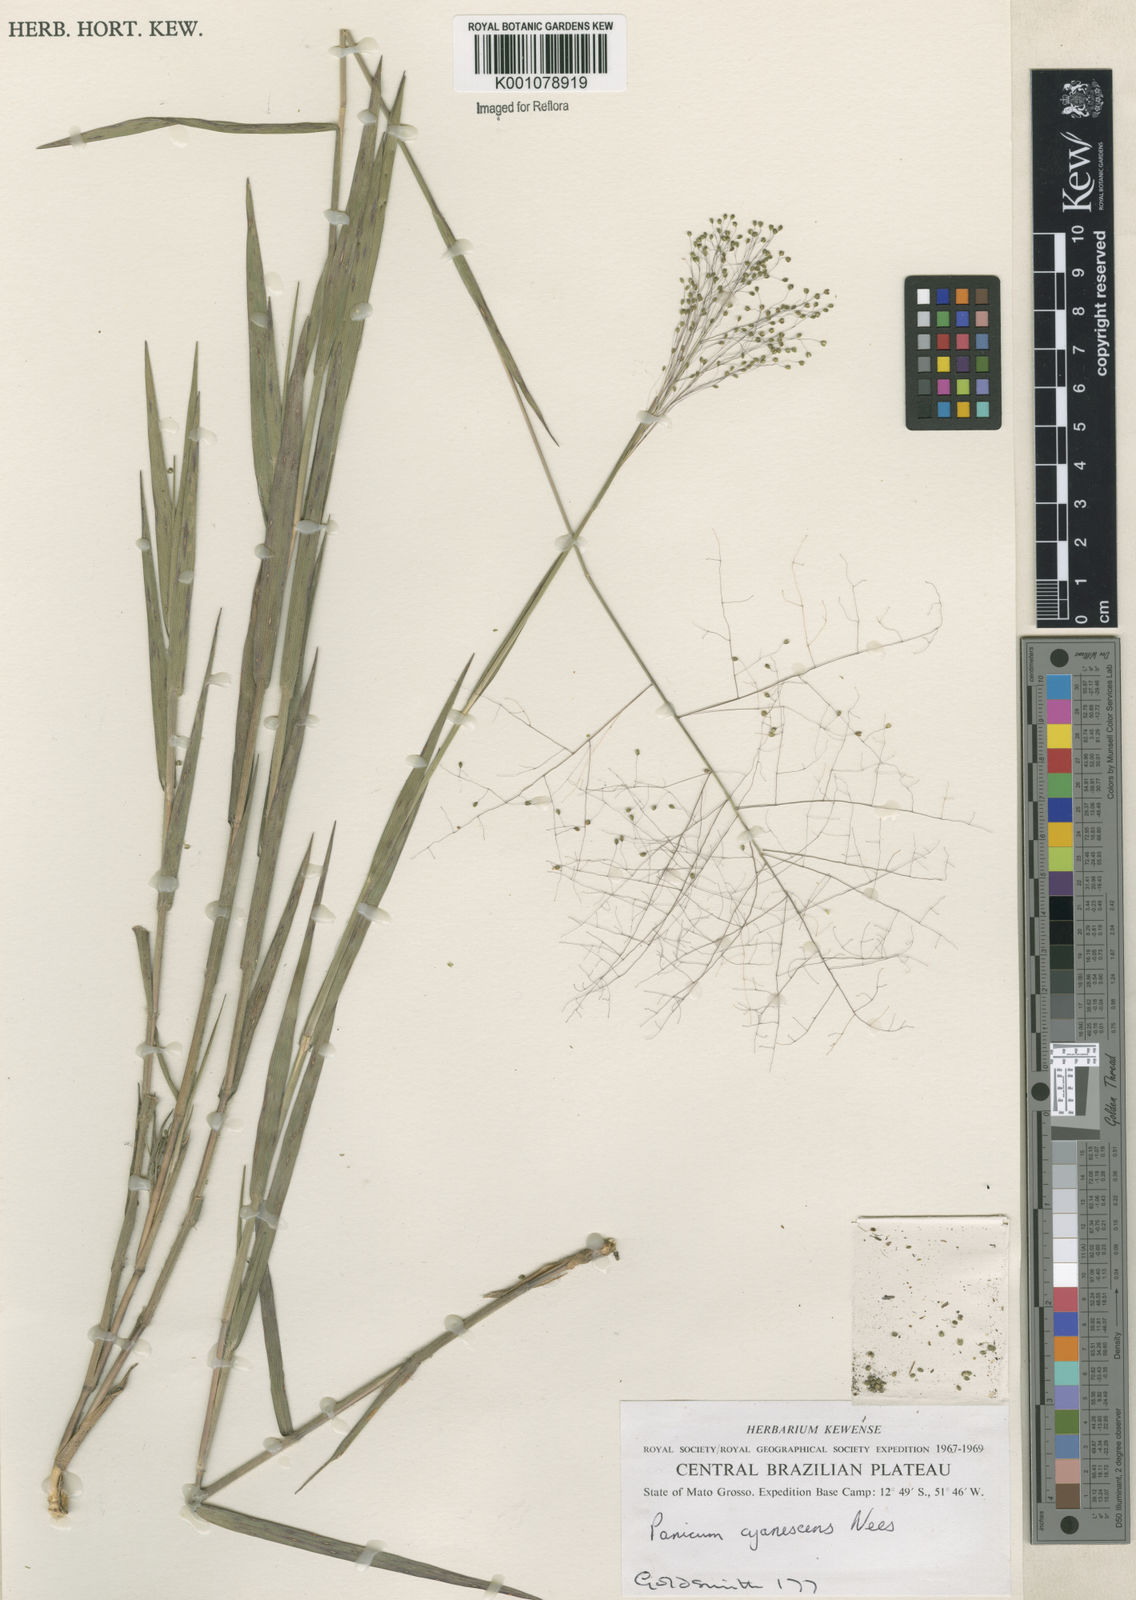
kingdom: Plantae
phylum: Tracheophyta
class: Liliopsida
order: Poales
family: Poaceae
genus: Trichanthecium
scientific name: Trichanthecium cyanescens
